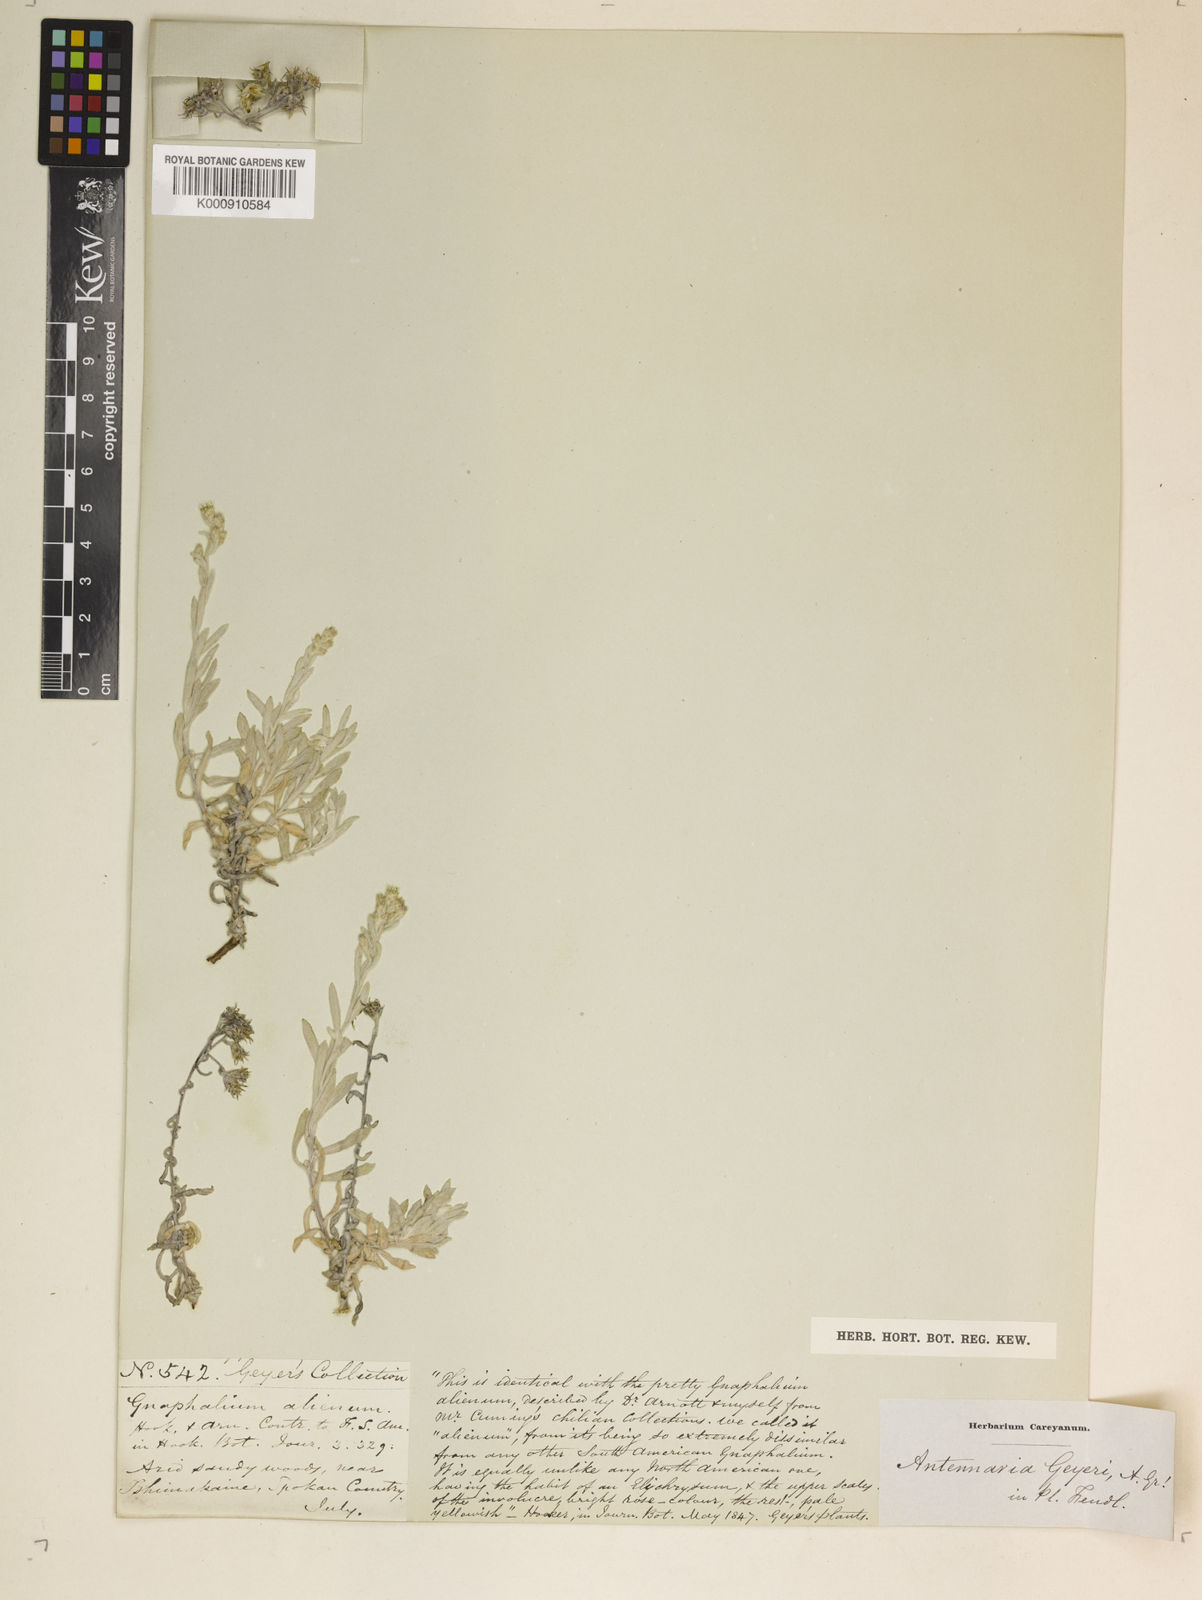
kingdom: Plantae
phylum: Tracheophyta
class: Magnoliopsida
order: Asterales
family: Asteraceae
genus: Antennaria
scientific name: Antennaria geyeri
